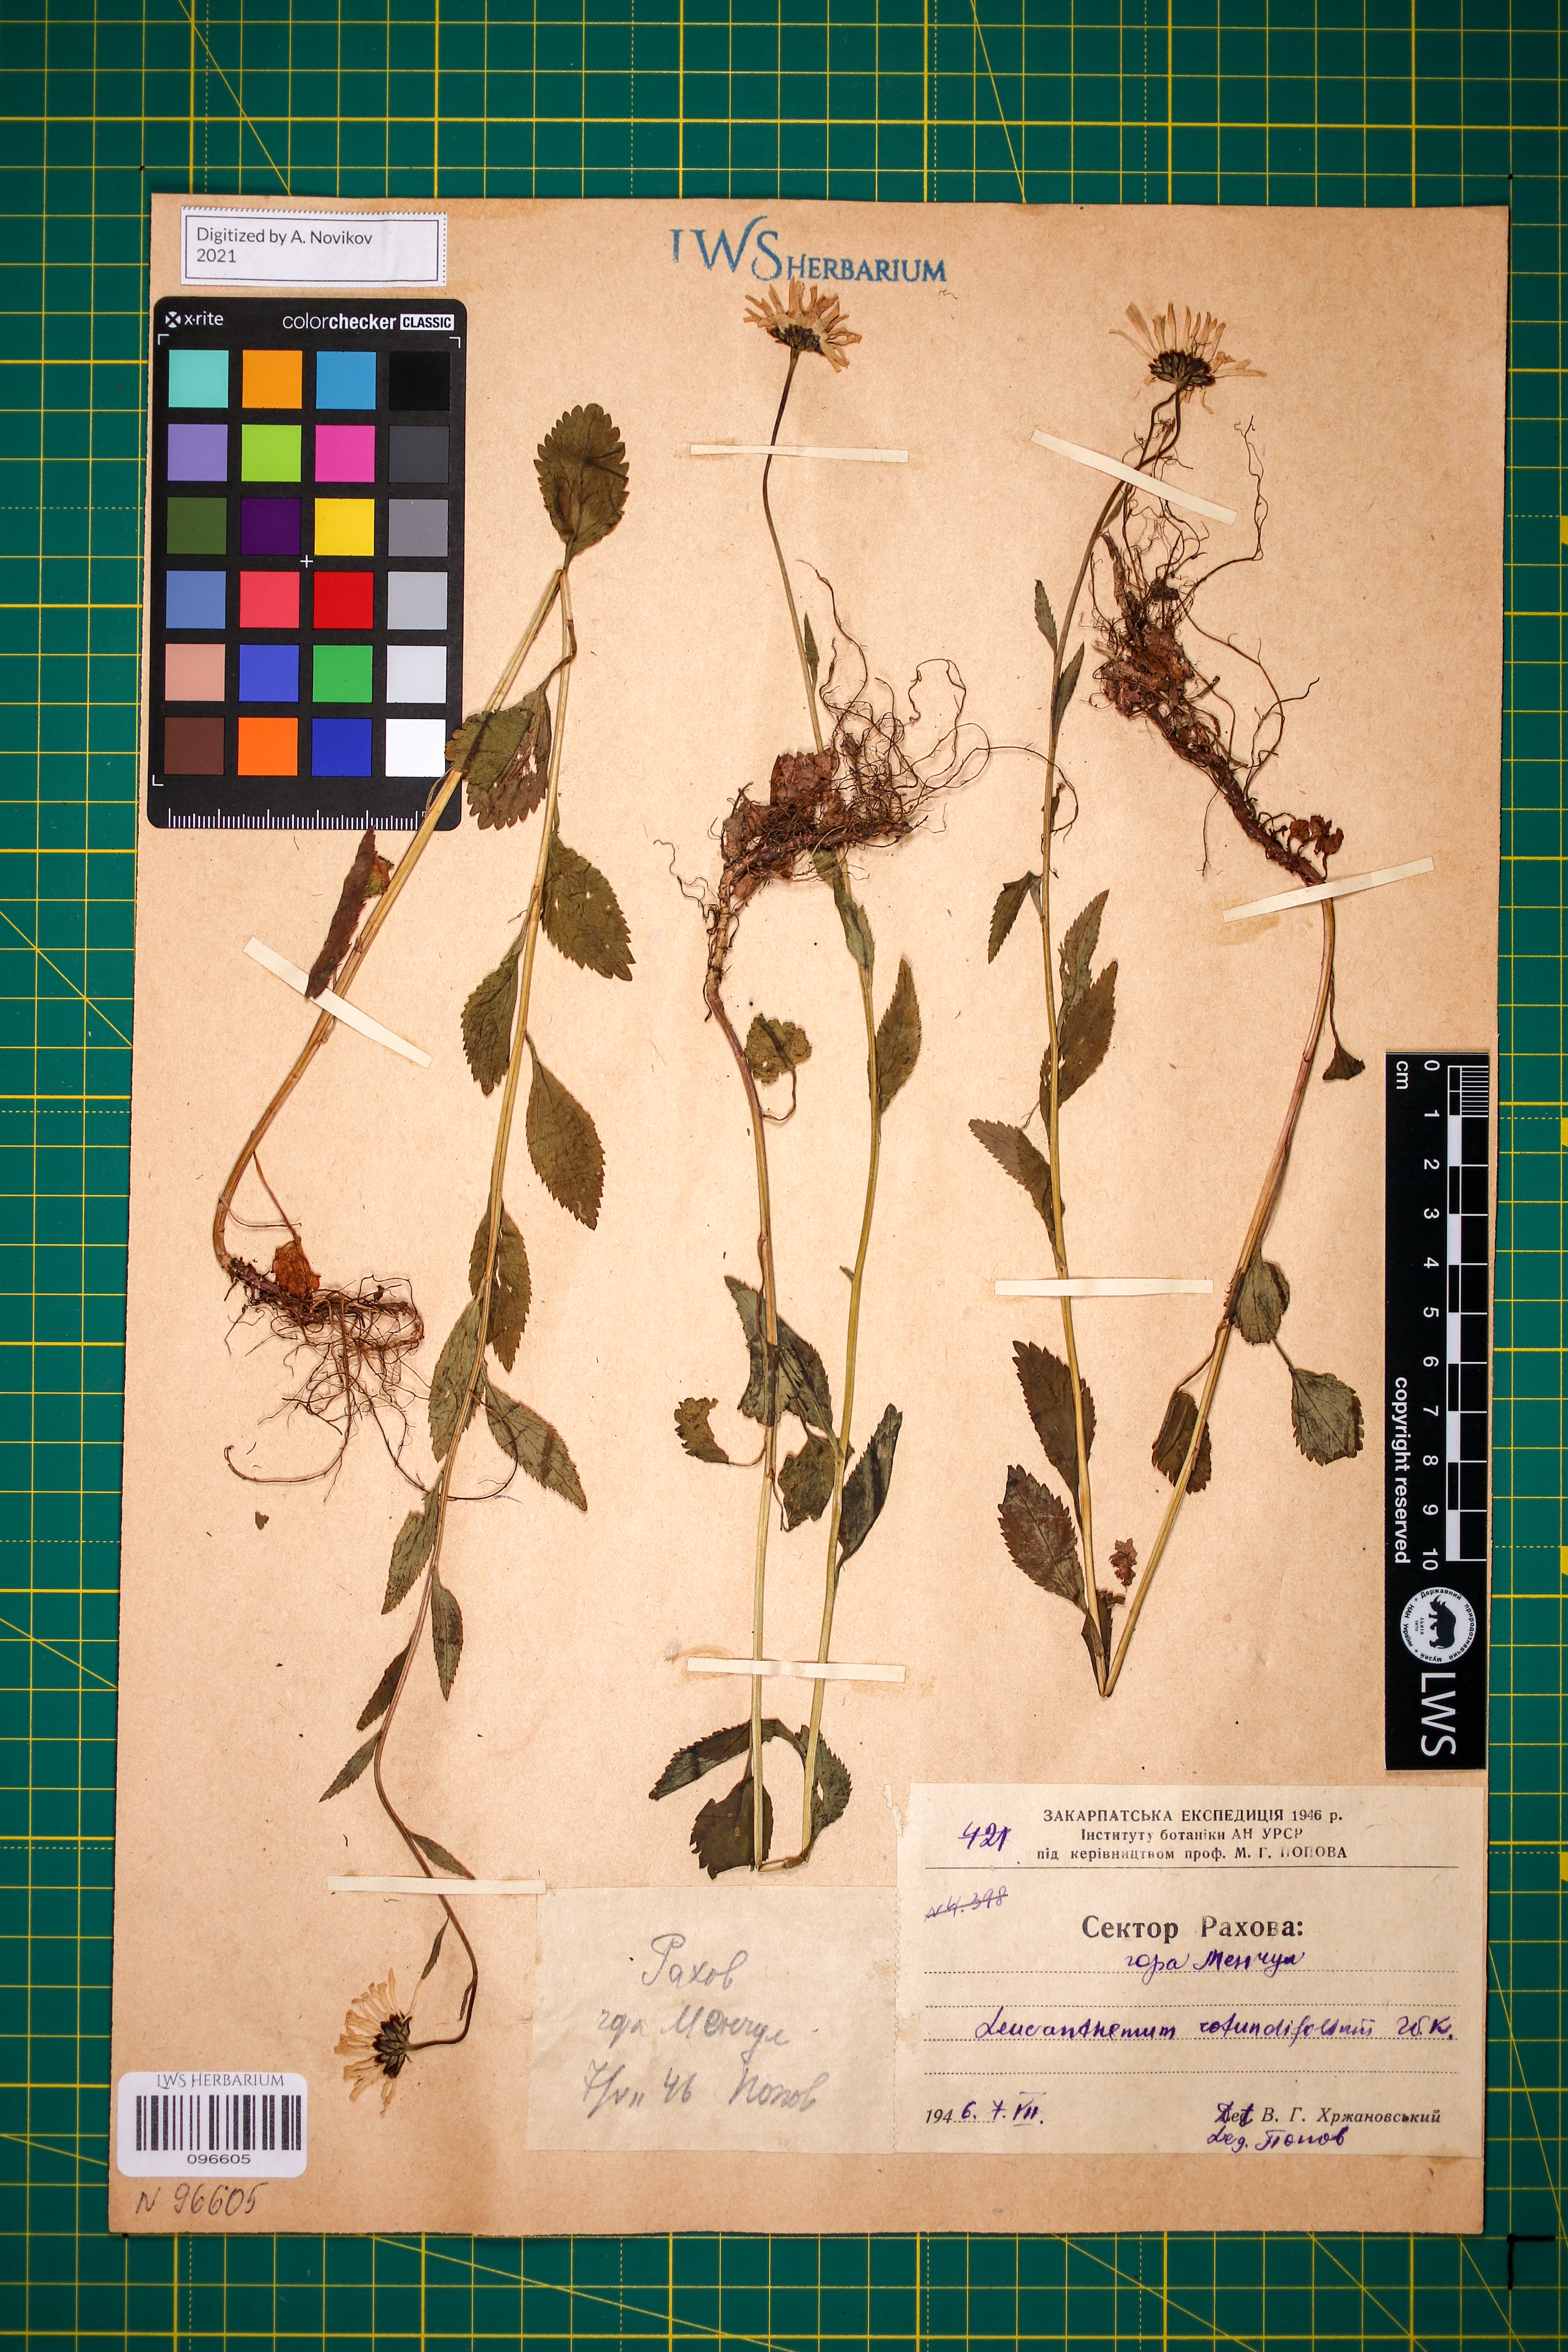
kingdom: Plantae
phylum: Tracheophyta
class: Magnoliopsida
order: Asterales
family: Asteraceae
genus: Leucanthemum
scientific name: Leucanthemum rotundifolium
